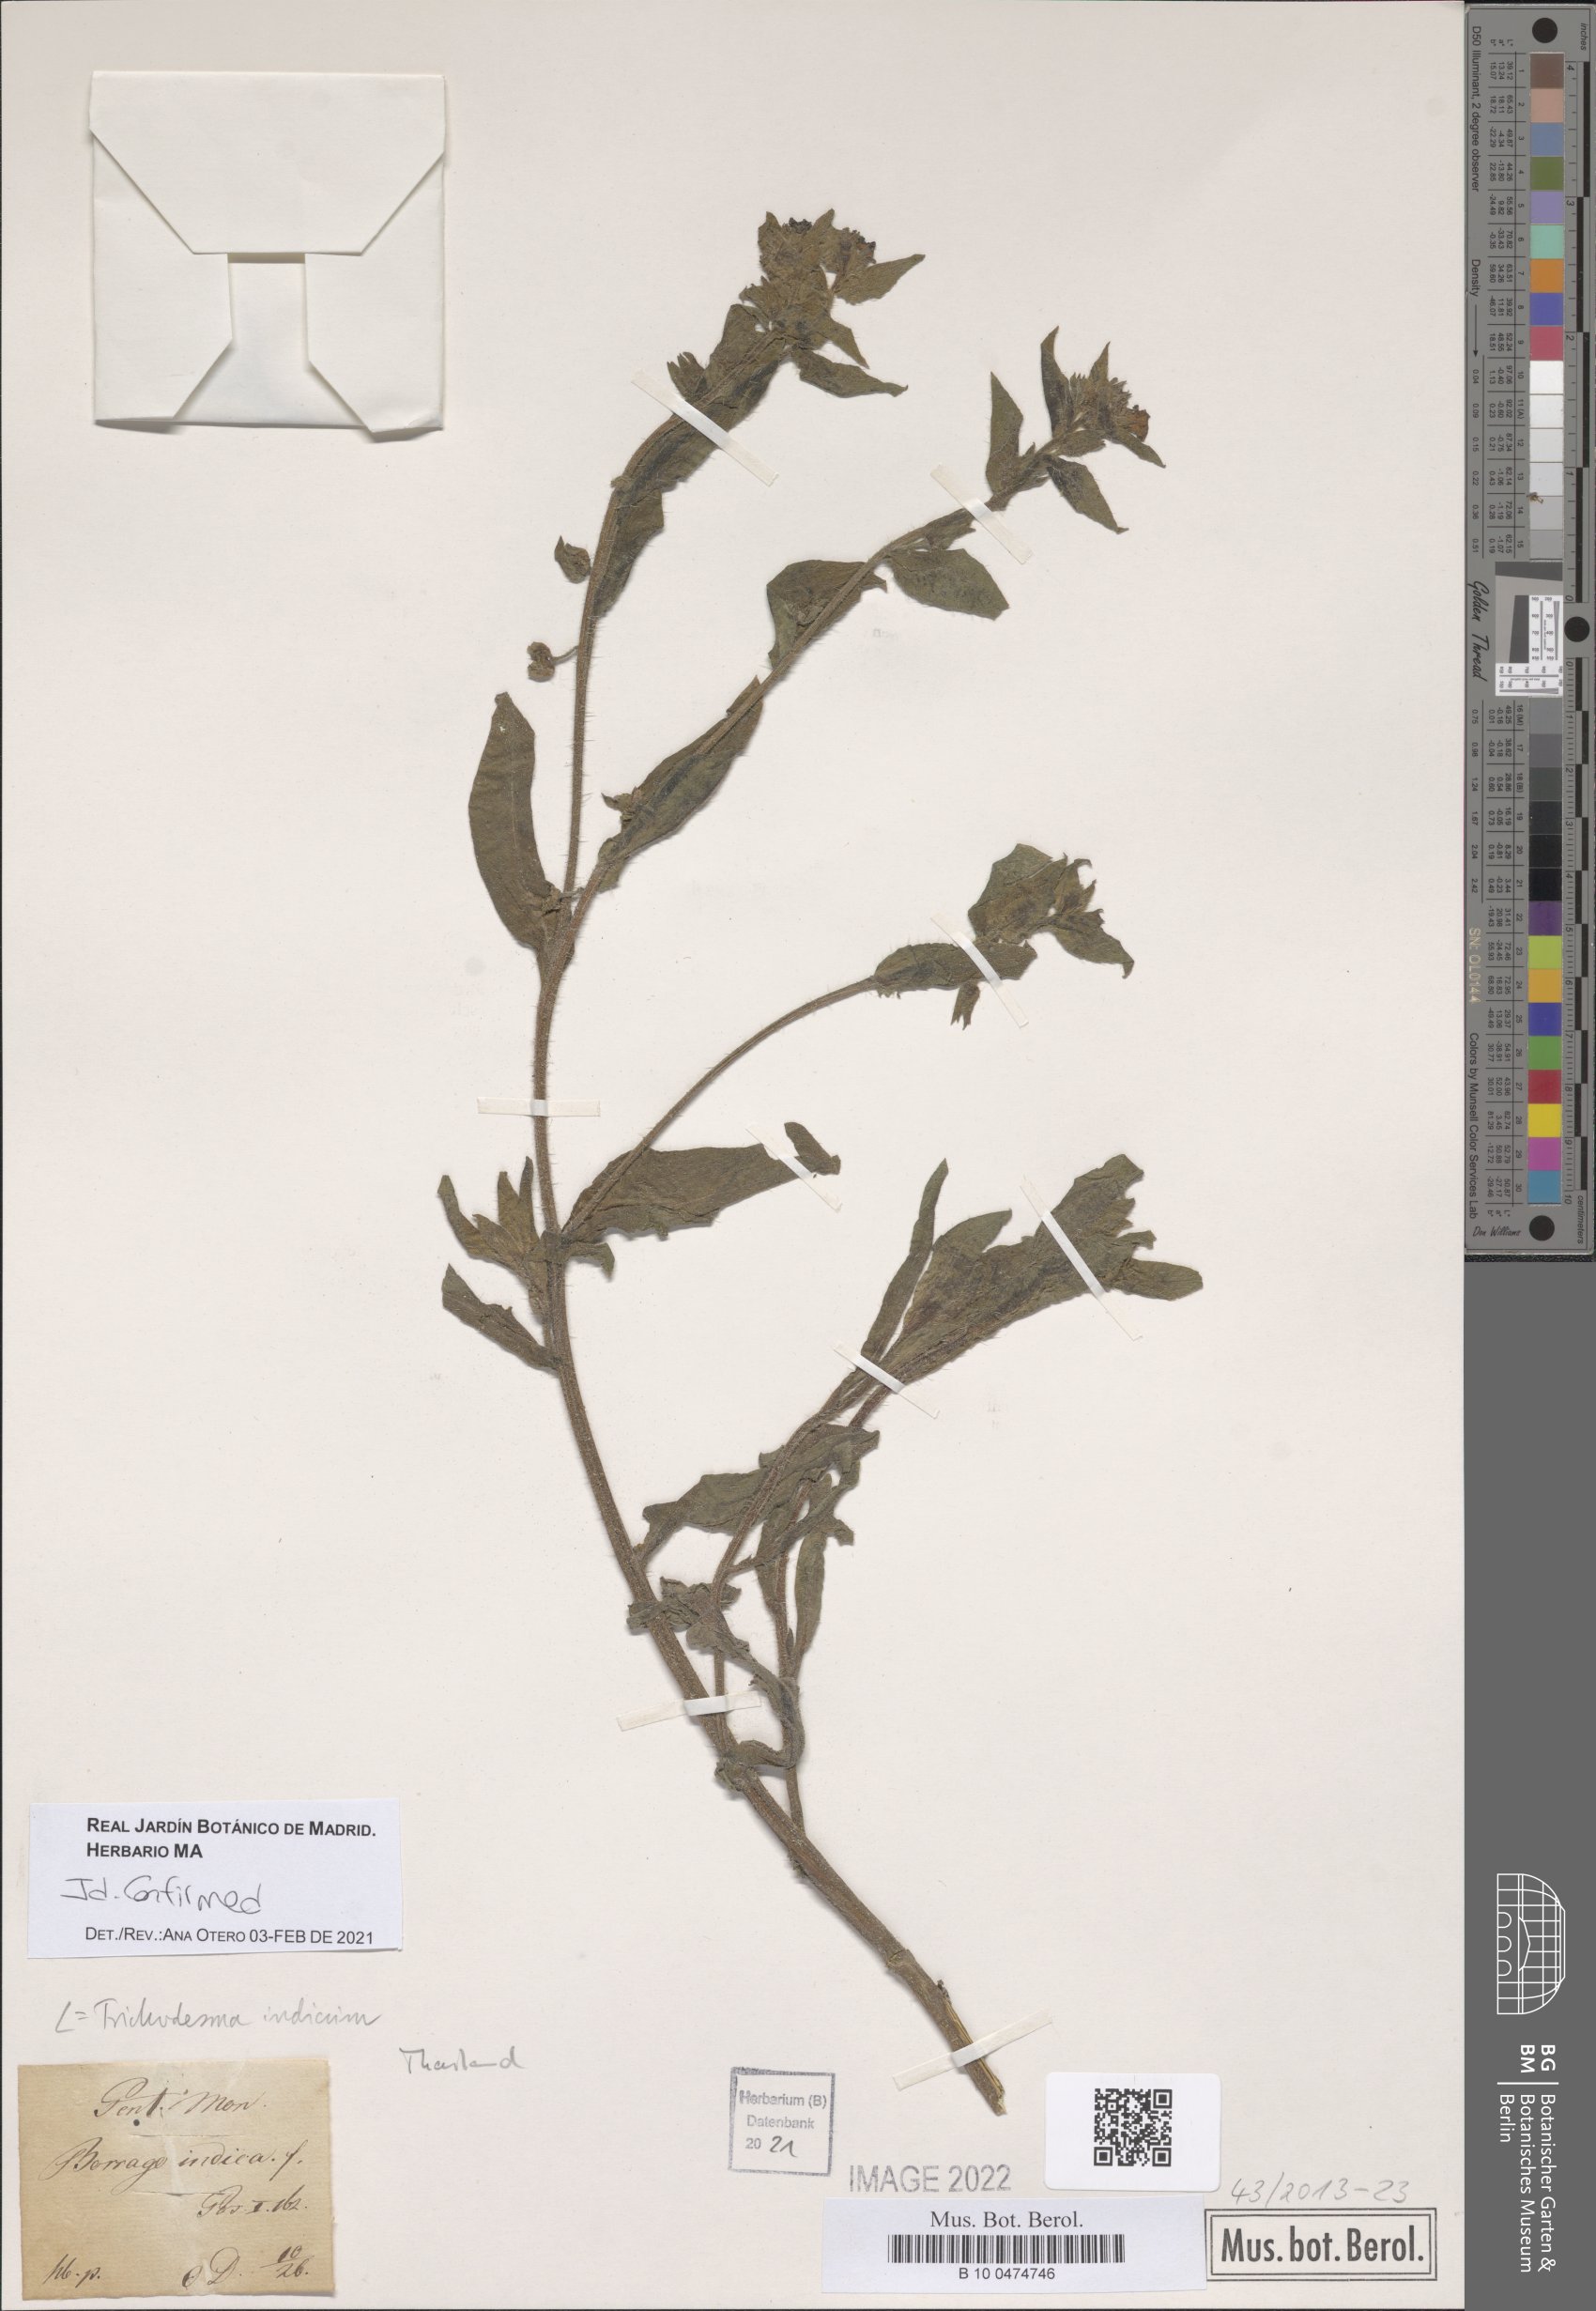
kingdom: Plantae
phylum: Tracheophyta
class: Magnoliopsida
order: Boraginales
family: Boraginaceae
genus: Trichodesma
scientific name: Trichodesma indicum
